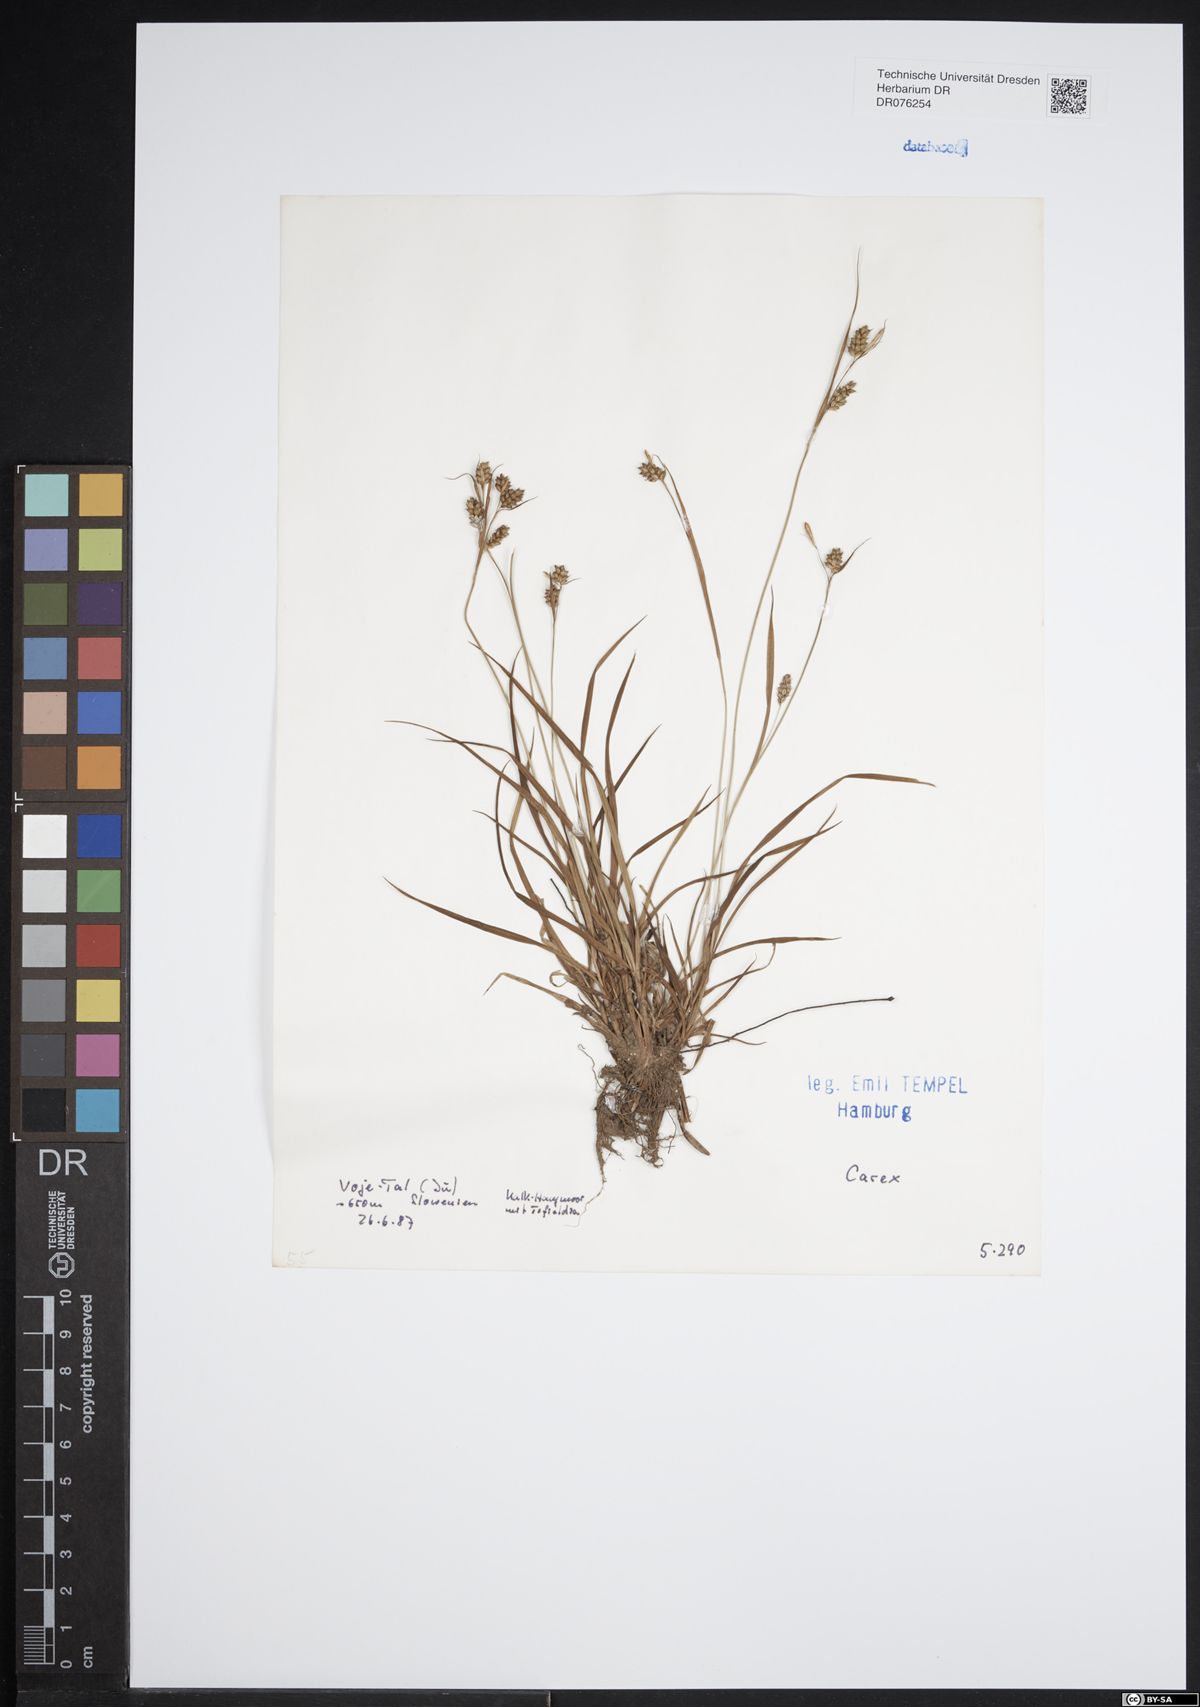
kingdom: Plantae
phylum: Tracheophyta
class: Liliopsida
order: Poales
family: Cyperaceae
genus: Carex
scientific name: Carex
